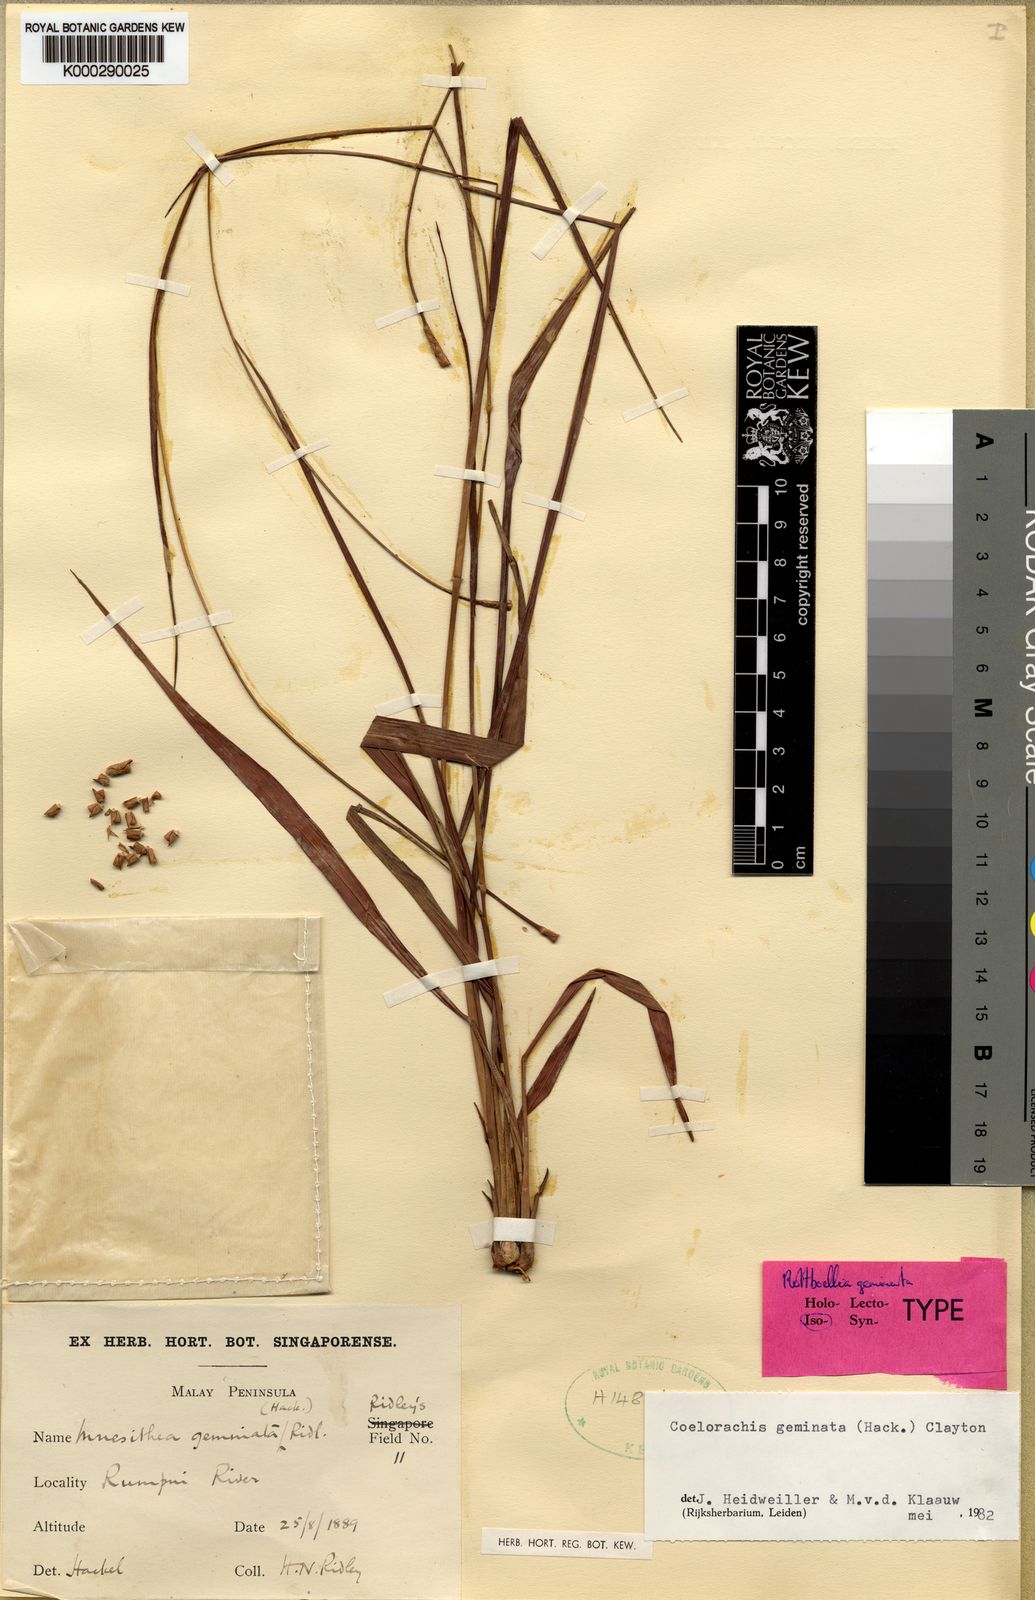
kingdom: Plantae
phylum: Tracheophyta
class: Liliopsida
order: Poales
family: Poaceae
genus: Rottboellia
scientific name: Rottboellia geminata
